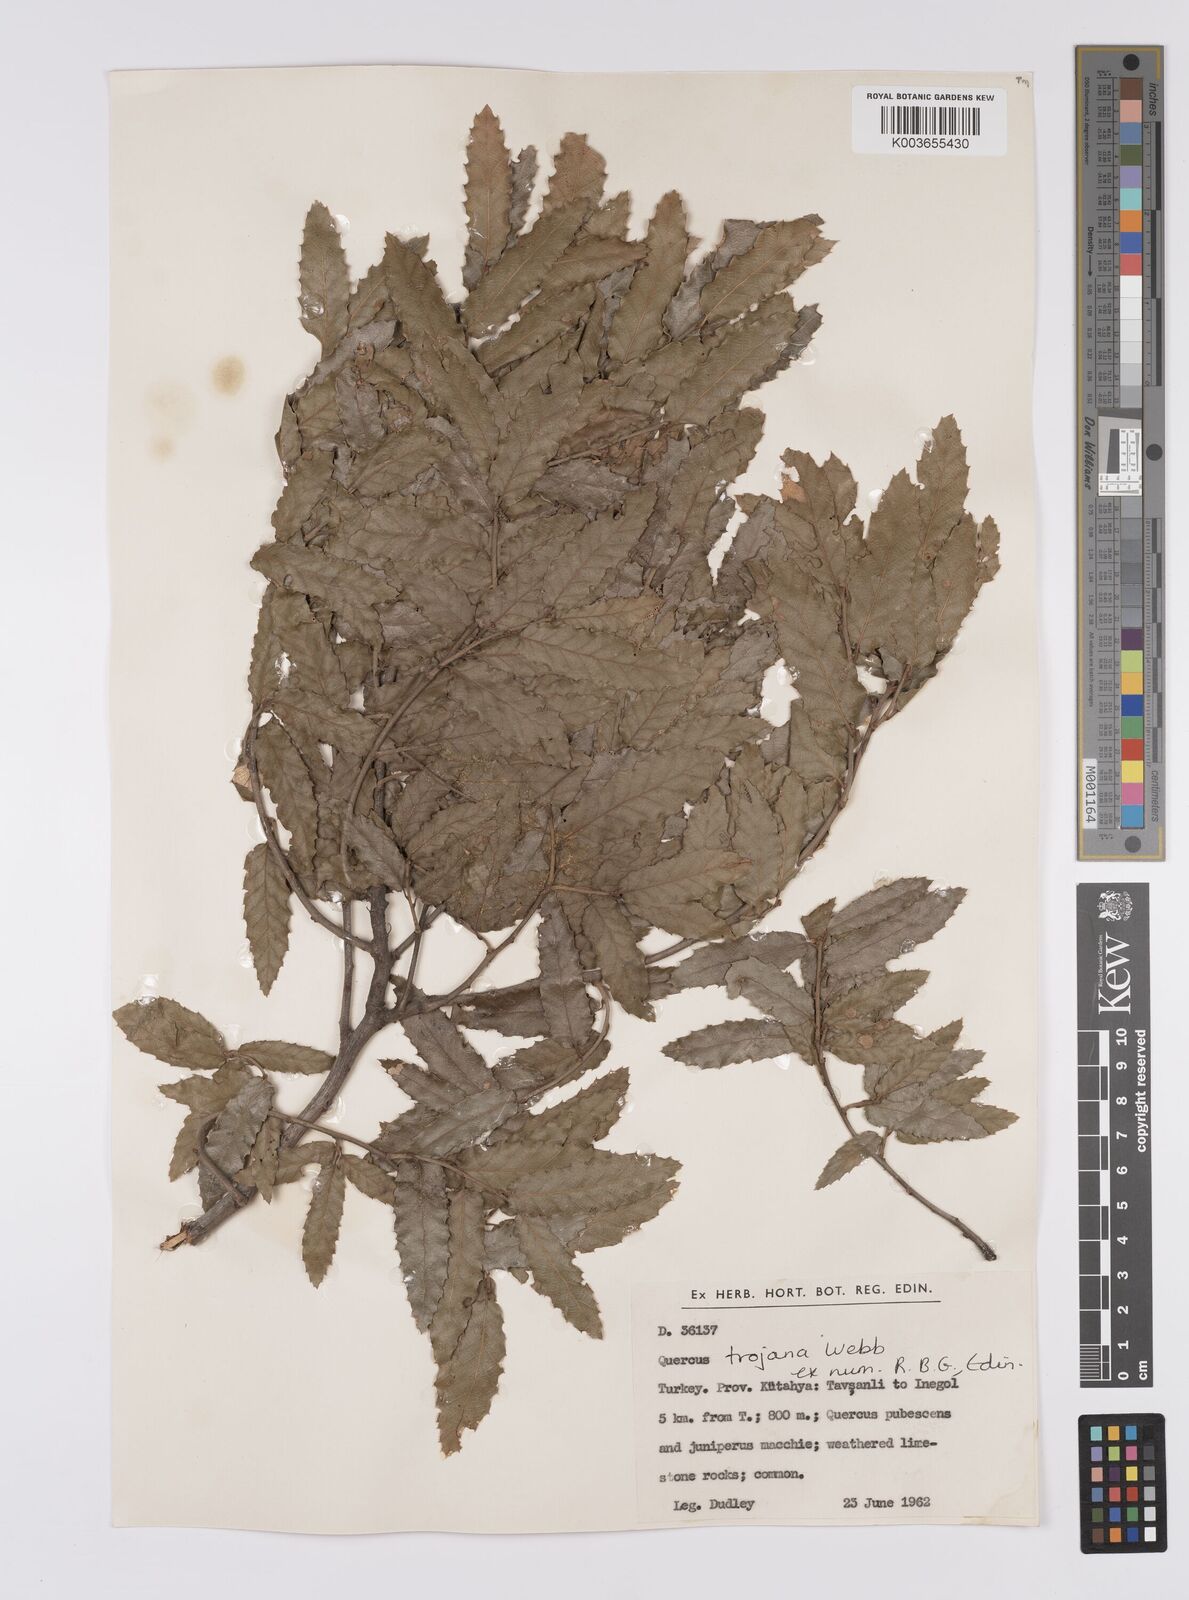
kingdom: Plantae
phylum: Tracheophyta
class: Magnoliopsida
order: Fagales
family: Fagaceae
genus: Quercus
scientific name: Quercus trojana
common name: Macedonian oak
